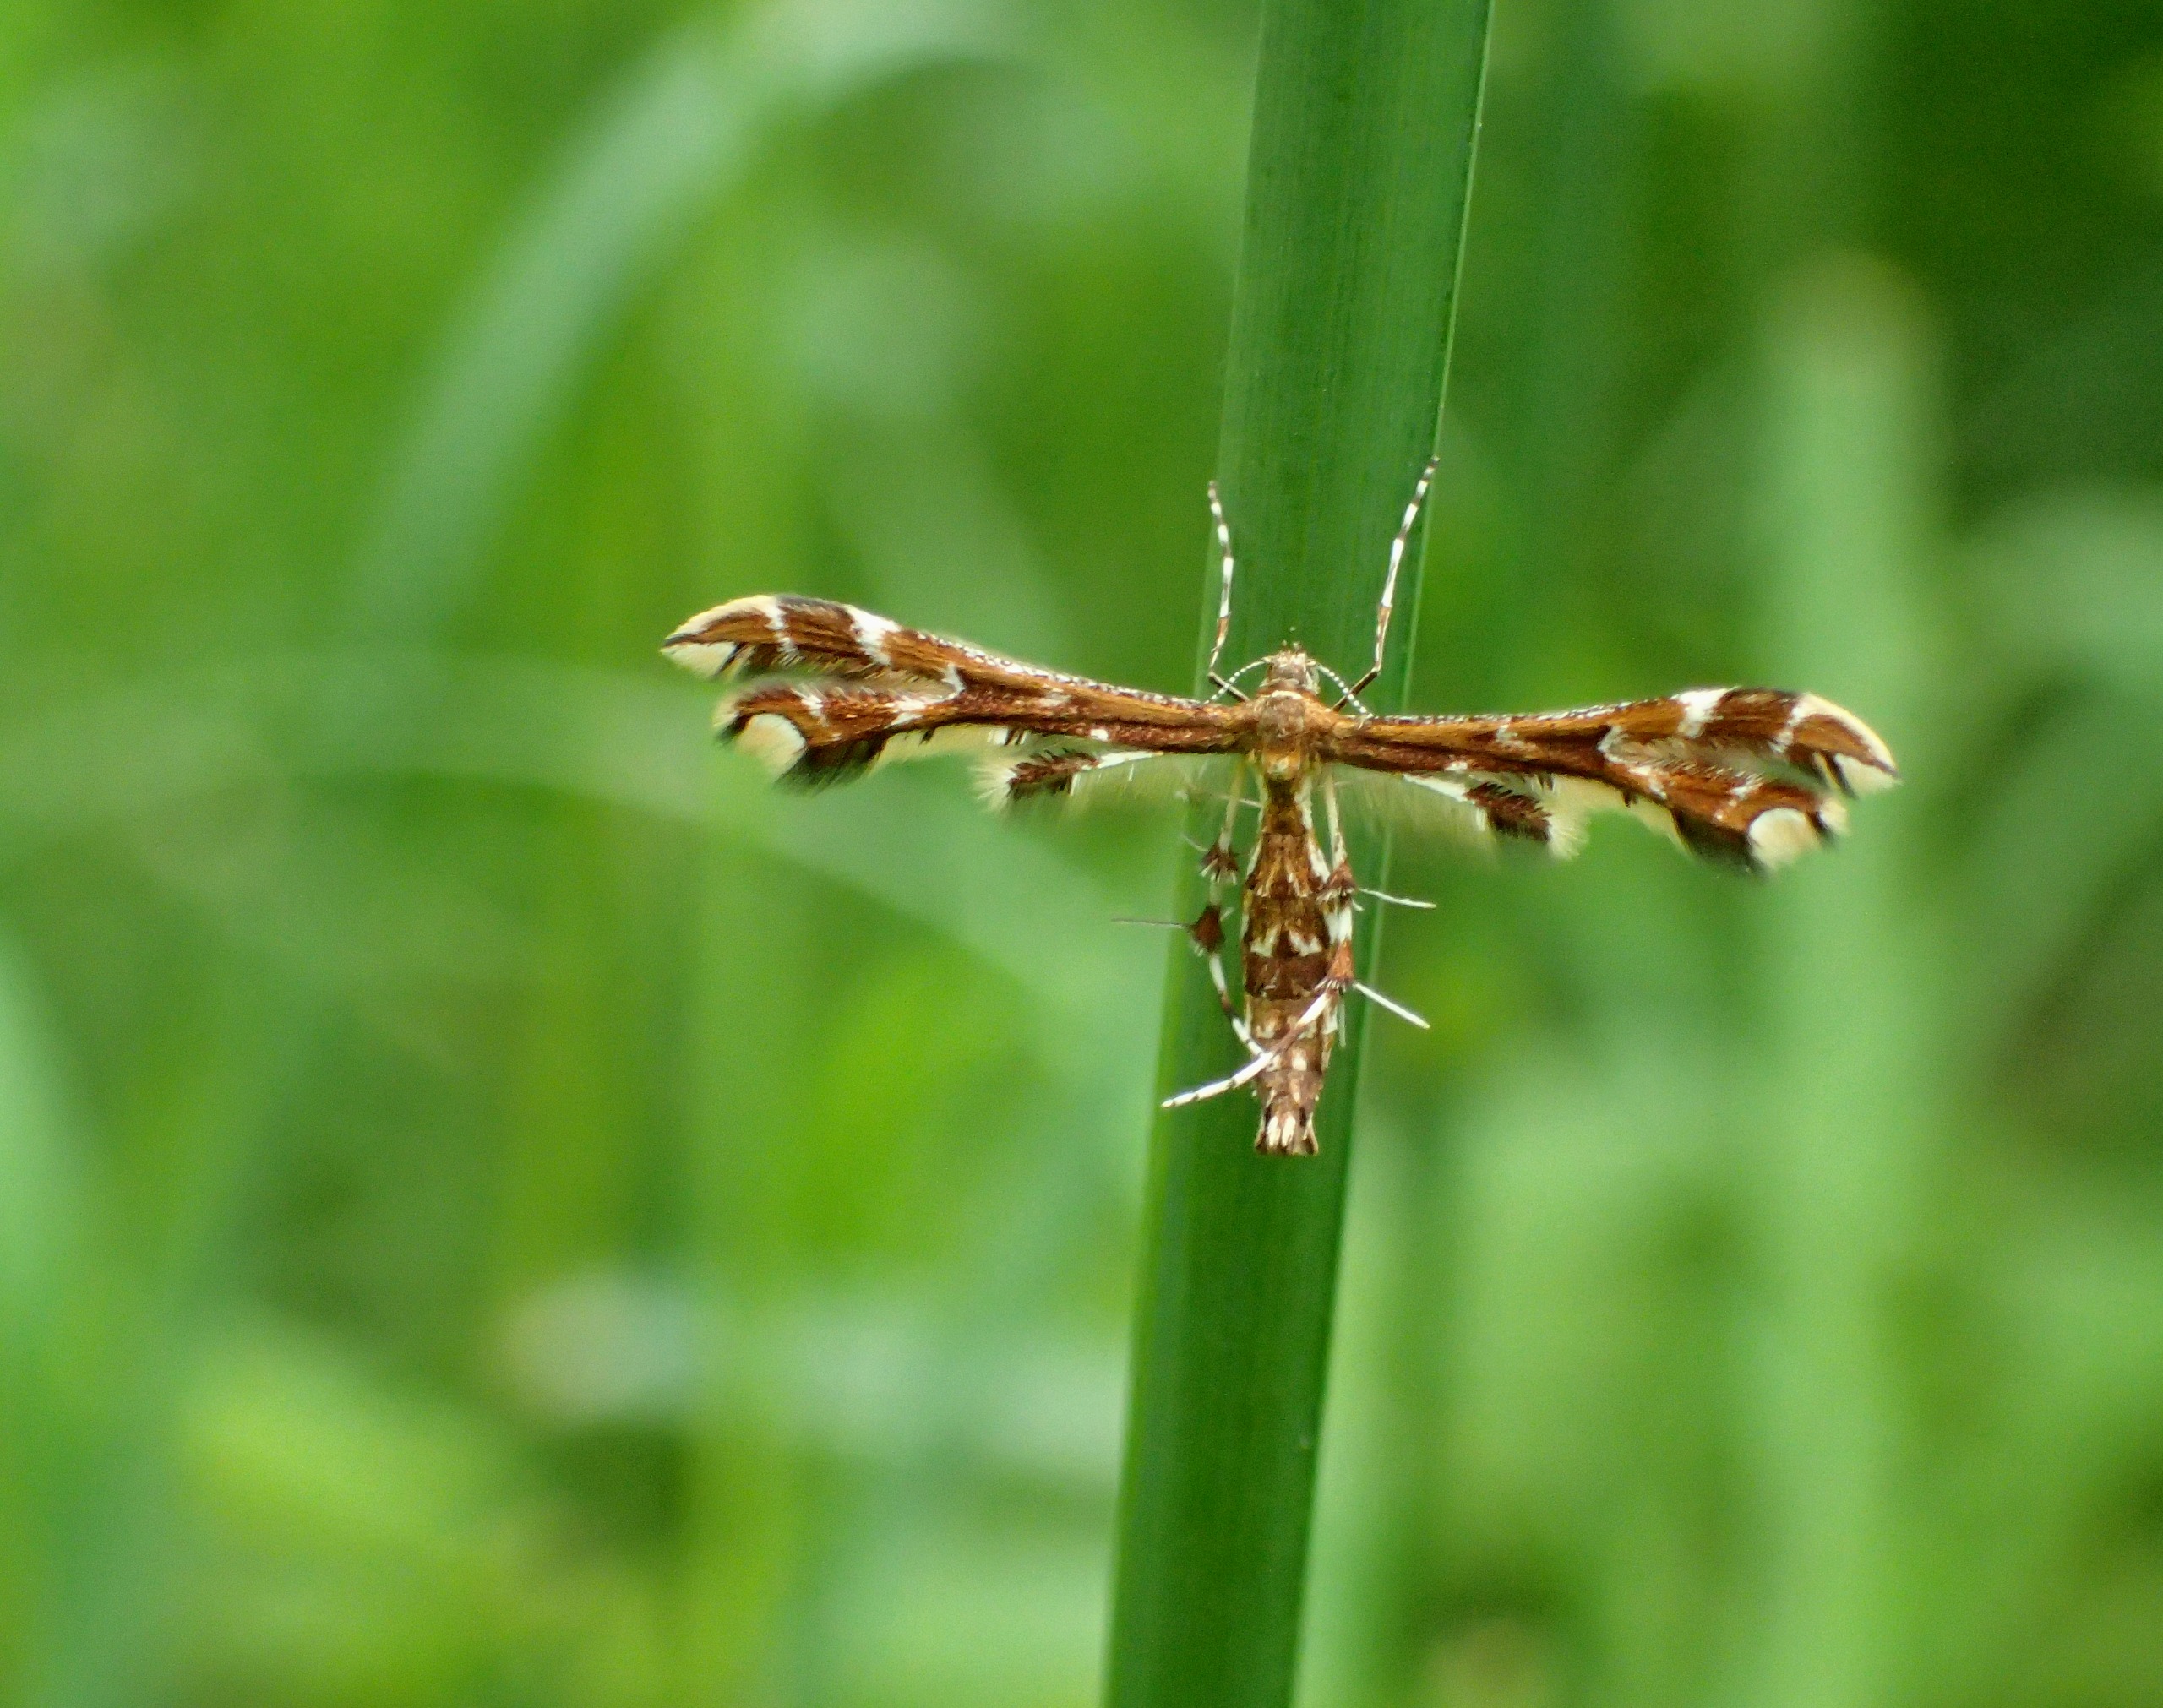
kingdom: Animalia
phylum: Arthropoda
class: Insecta
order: Lepidoptera
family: Pterophoridae
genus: Geina
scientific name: Geina didactyla
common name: Engnellikerodfjermøl
